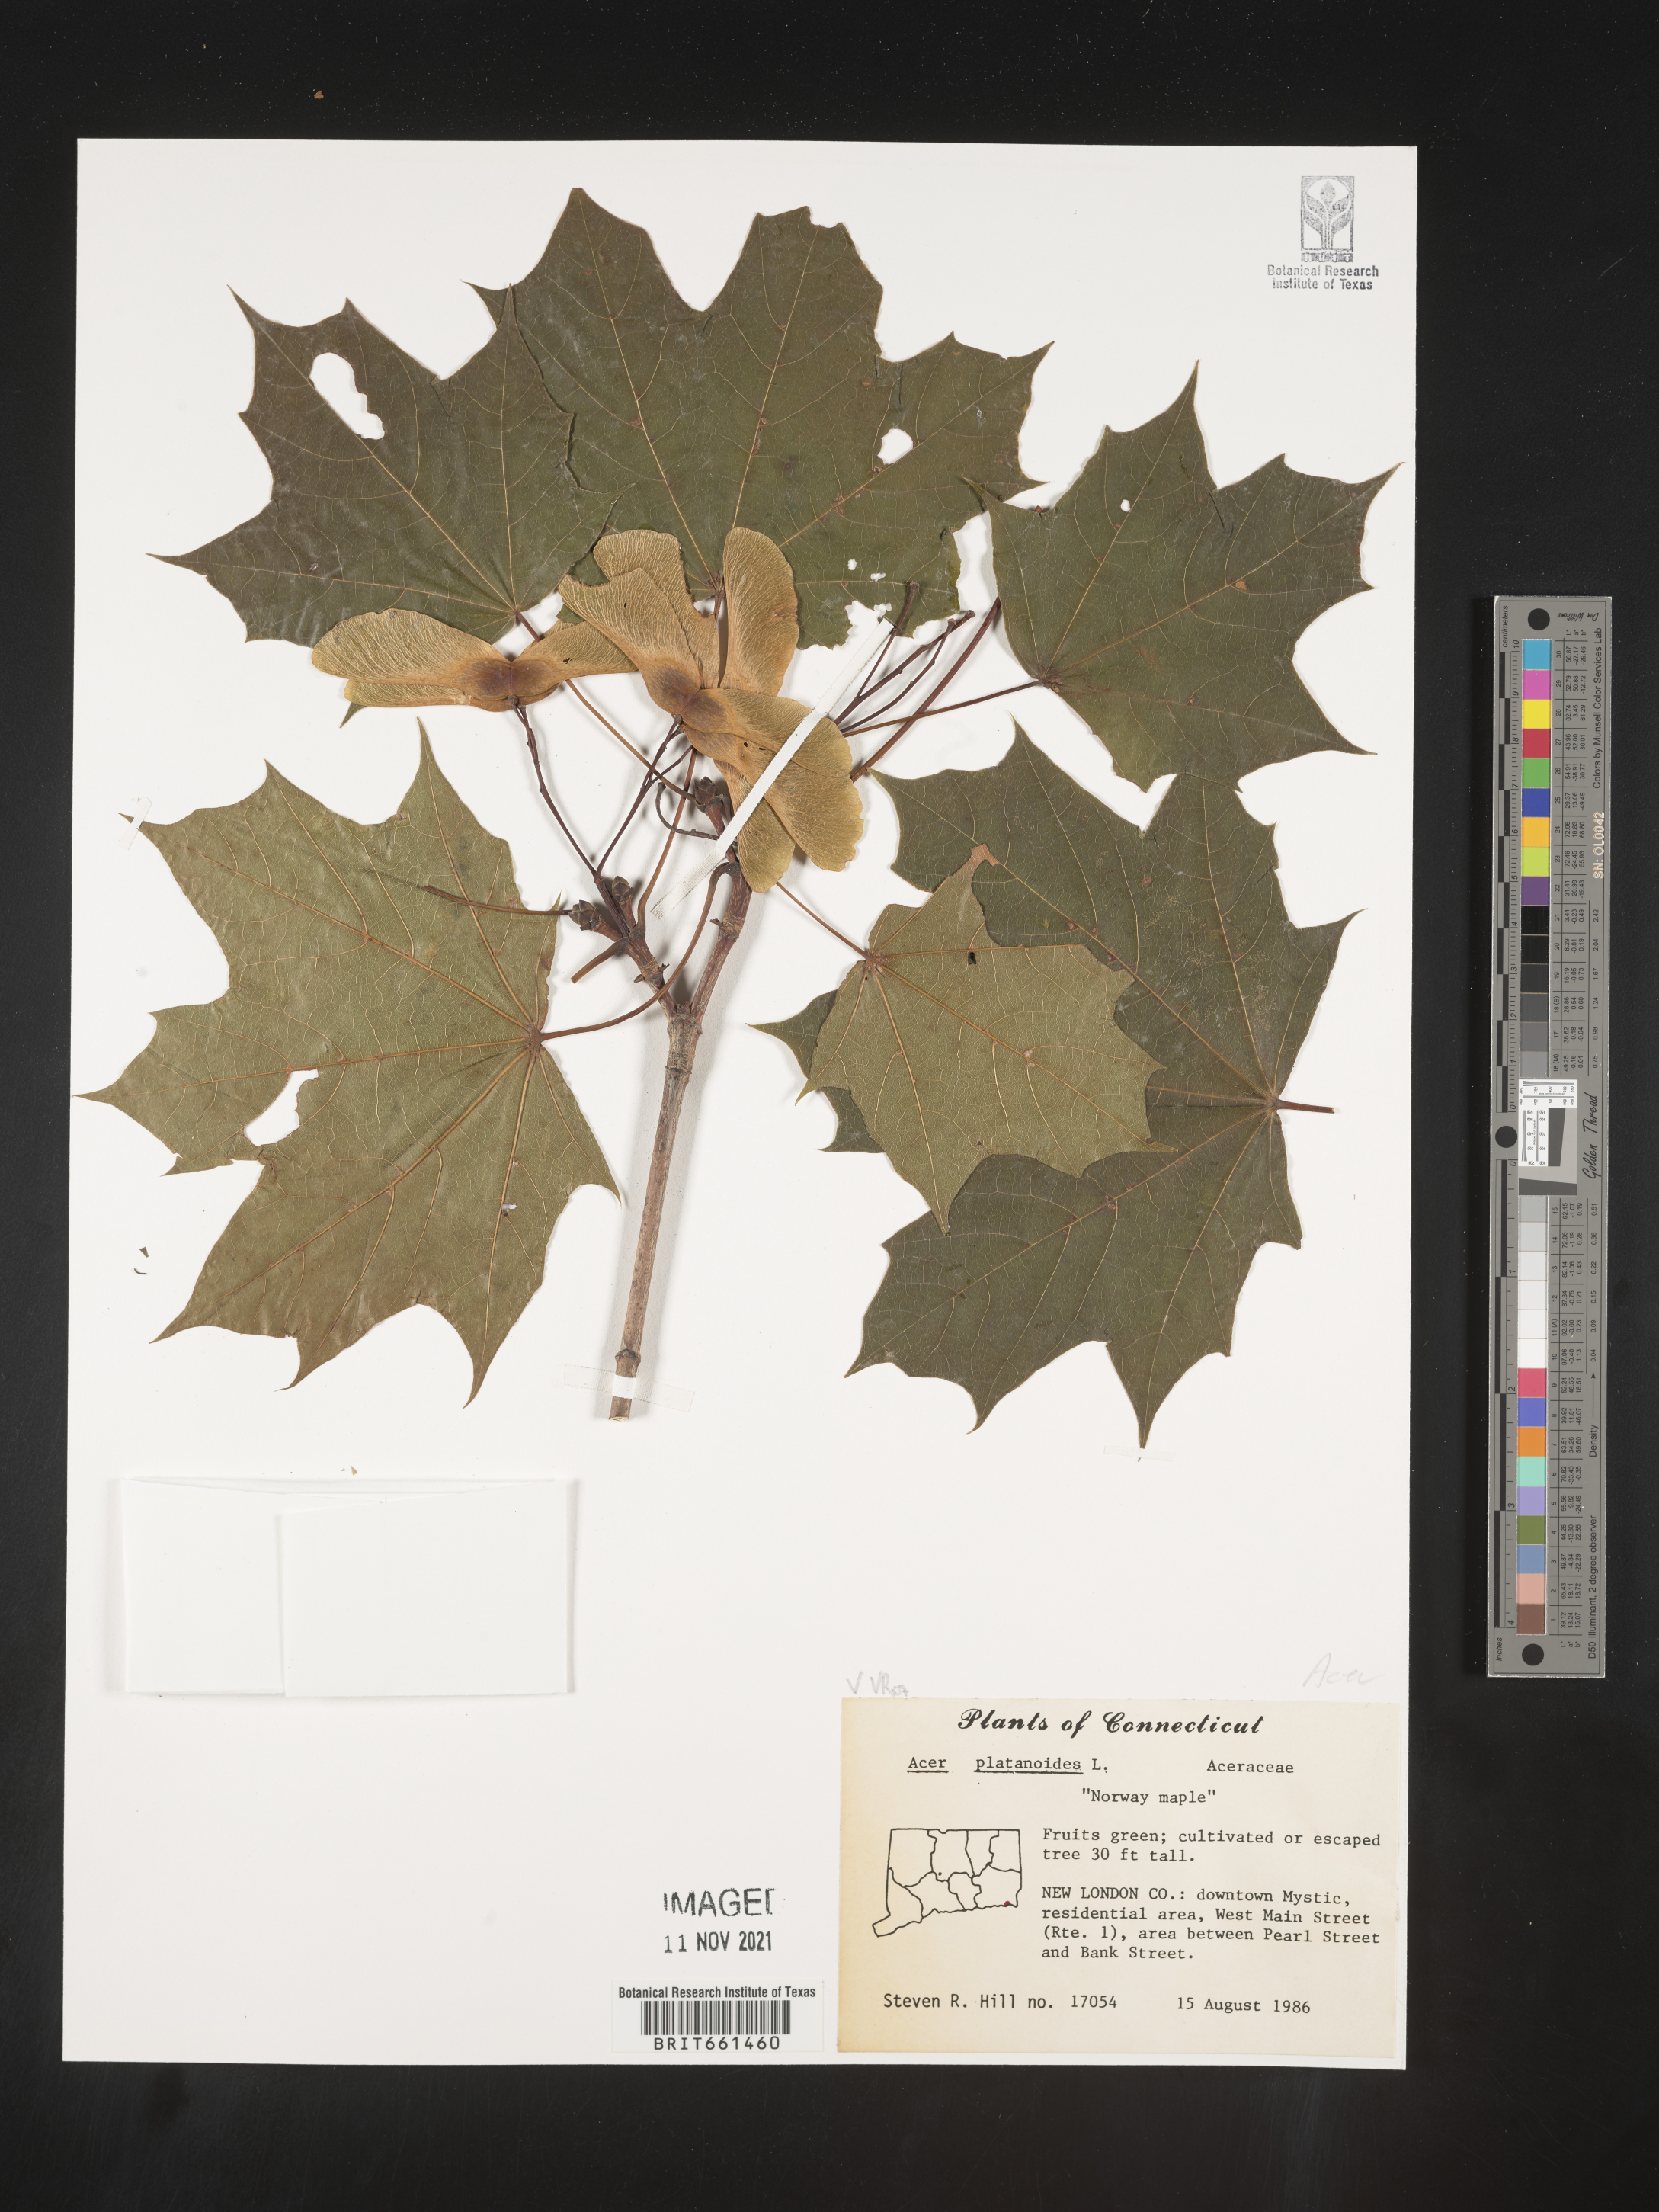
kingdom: Plantae
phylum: Tracheophyta
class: Magnoliopsida
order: Sapindales
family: Sapindaceae
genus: Acer
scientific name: Acer
